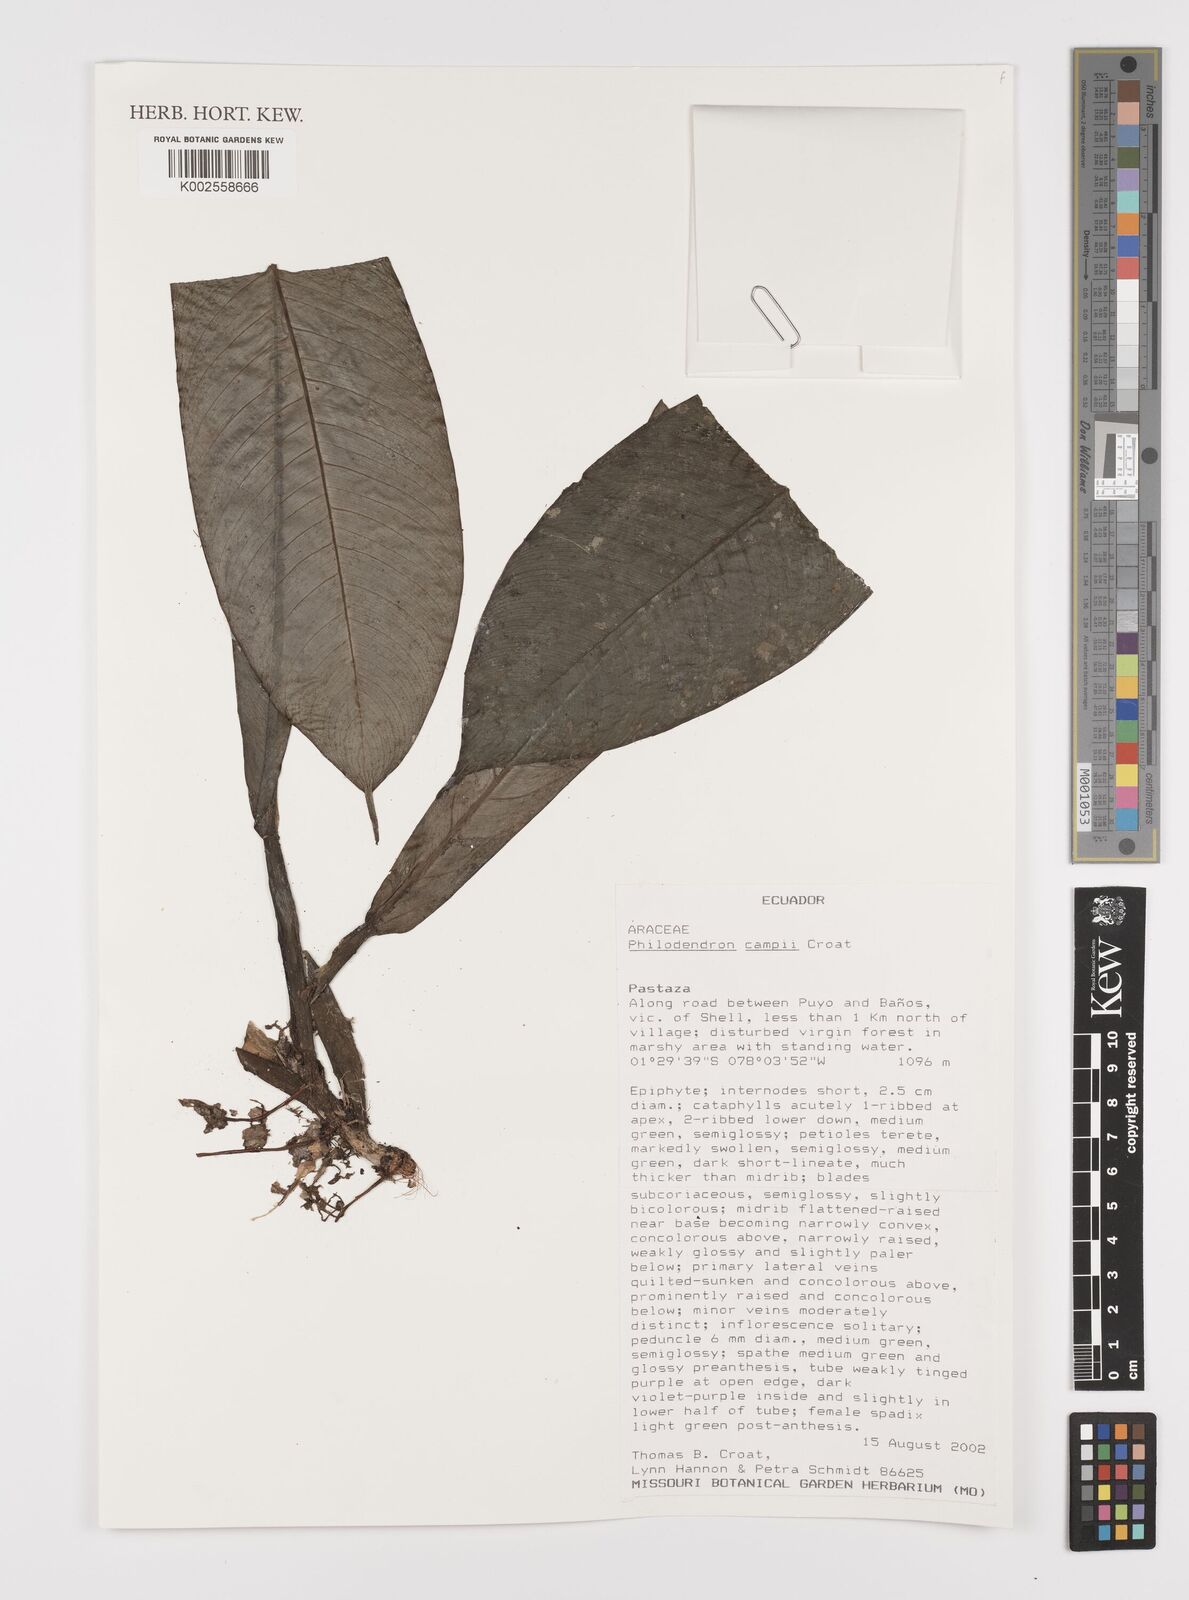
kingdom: Plantae
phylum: Tracheophyta
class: Liliopsida
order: Alismatales
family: Araceae
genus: Philodendron
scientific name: Philodendron campii
